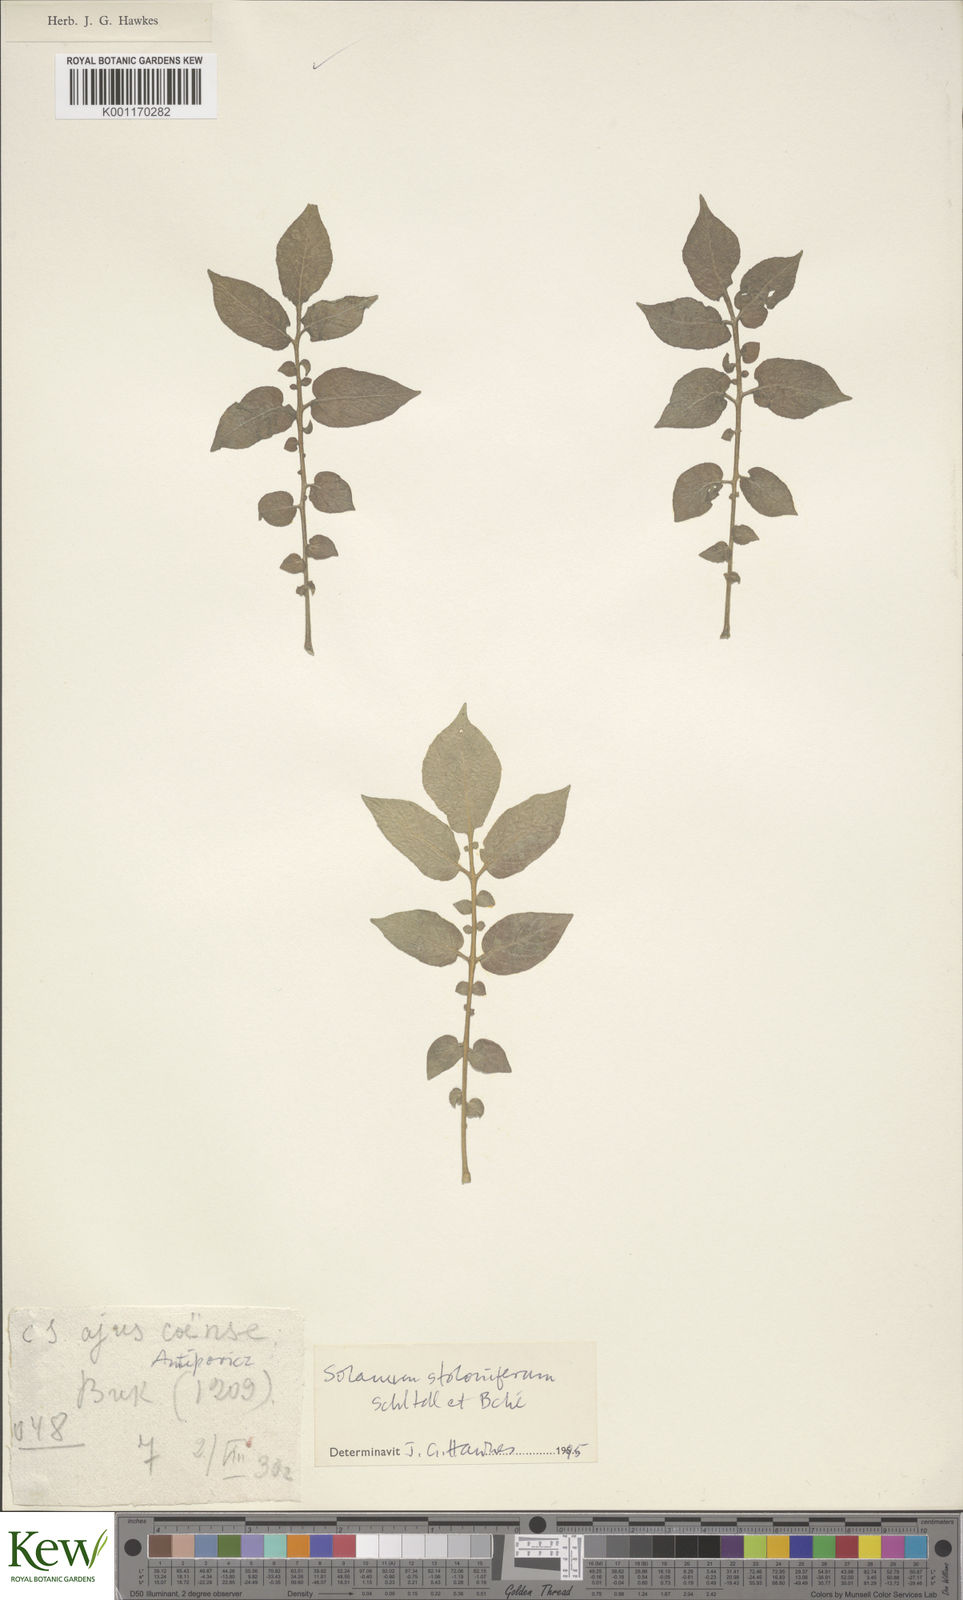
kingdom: Plantae
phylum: Tracheophyta
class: Magnoliopsida
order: Solanales
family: Solanaceae
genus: Solanum
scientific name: Solanum stoloniferum
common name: Fendler's nighshade
